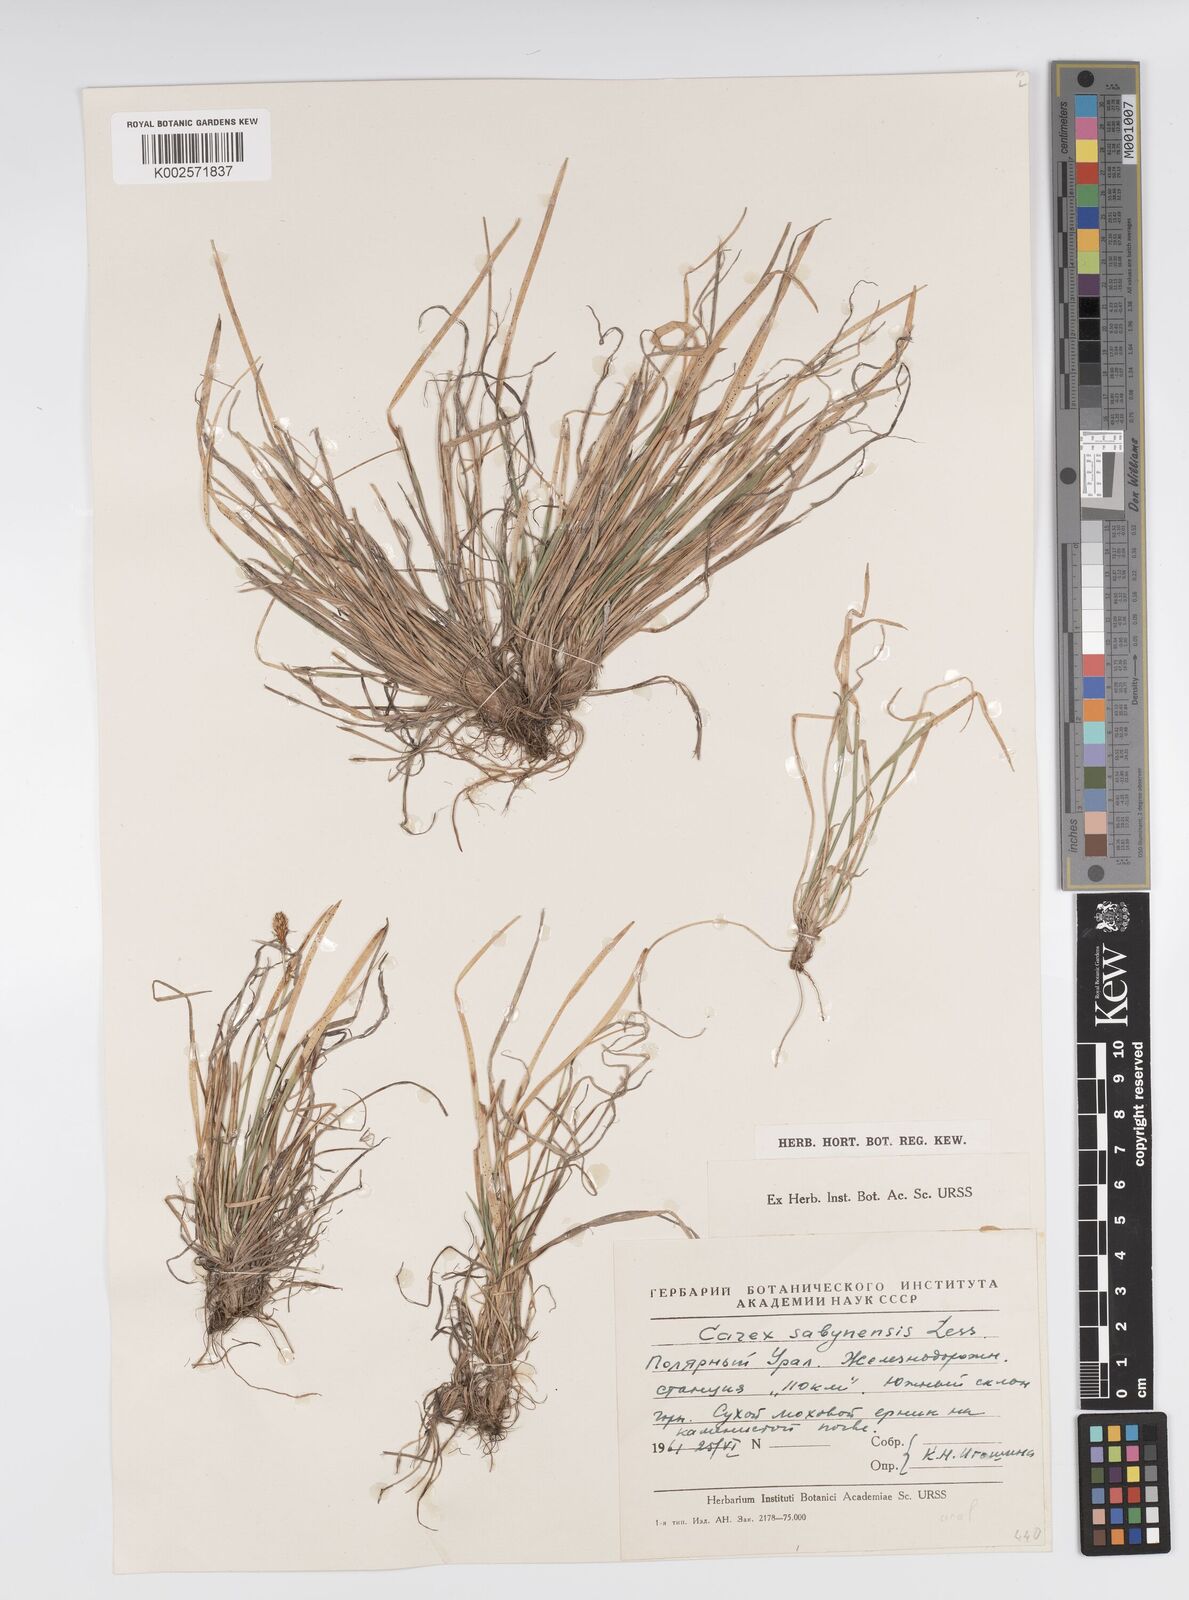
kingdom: Plantae
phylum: Tracheophyta
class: Liliopsida
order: Poales
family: Cyperaceae
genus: Carex
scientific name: Carex umbrosa
